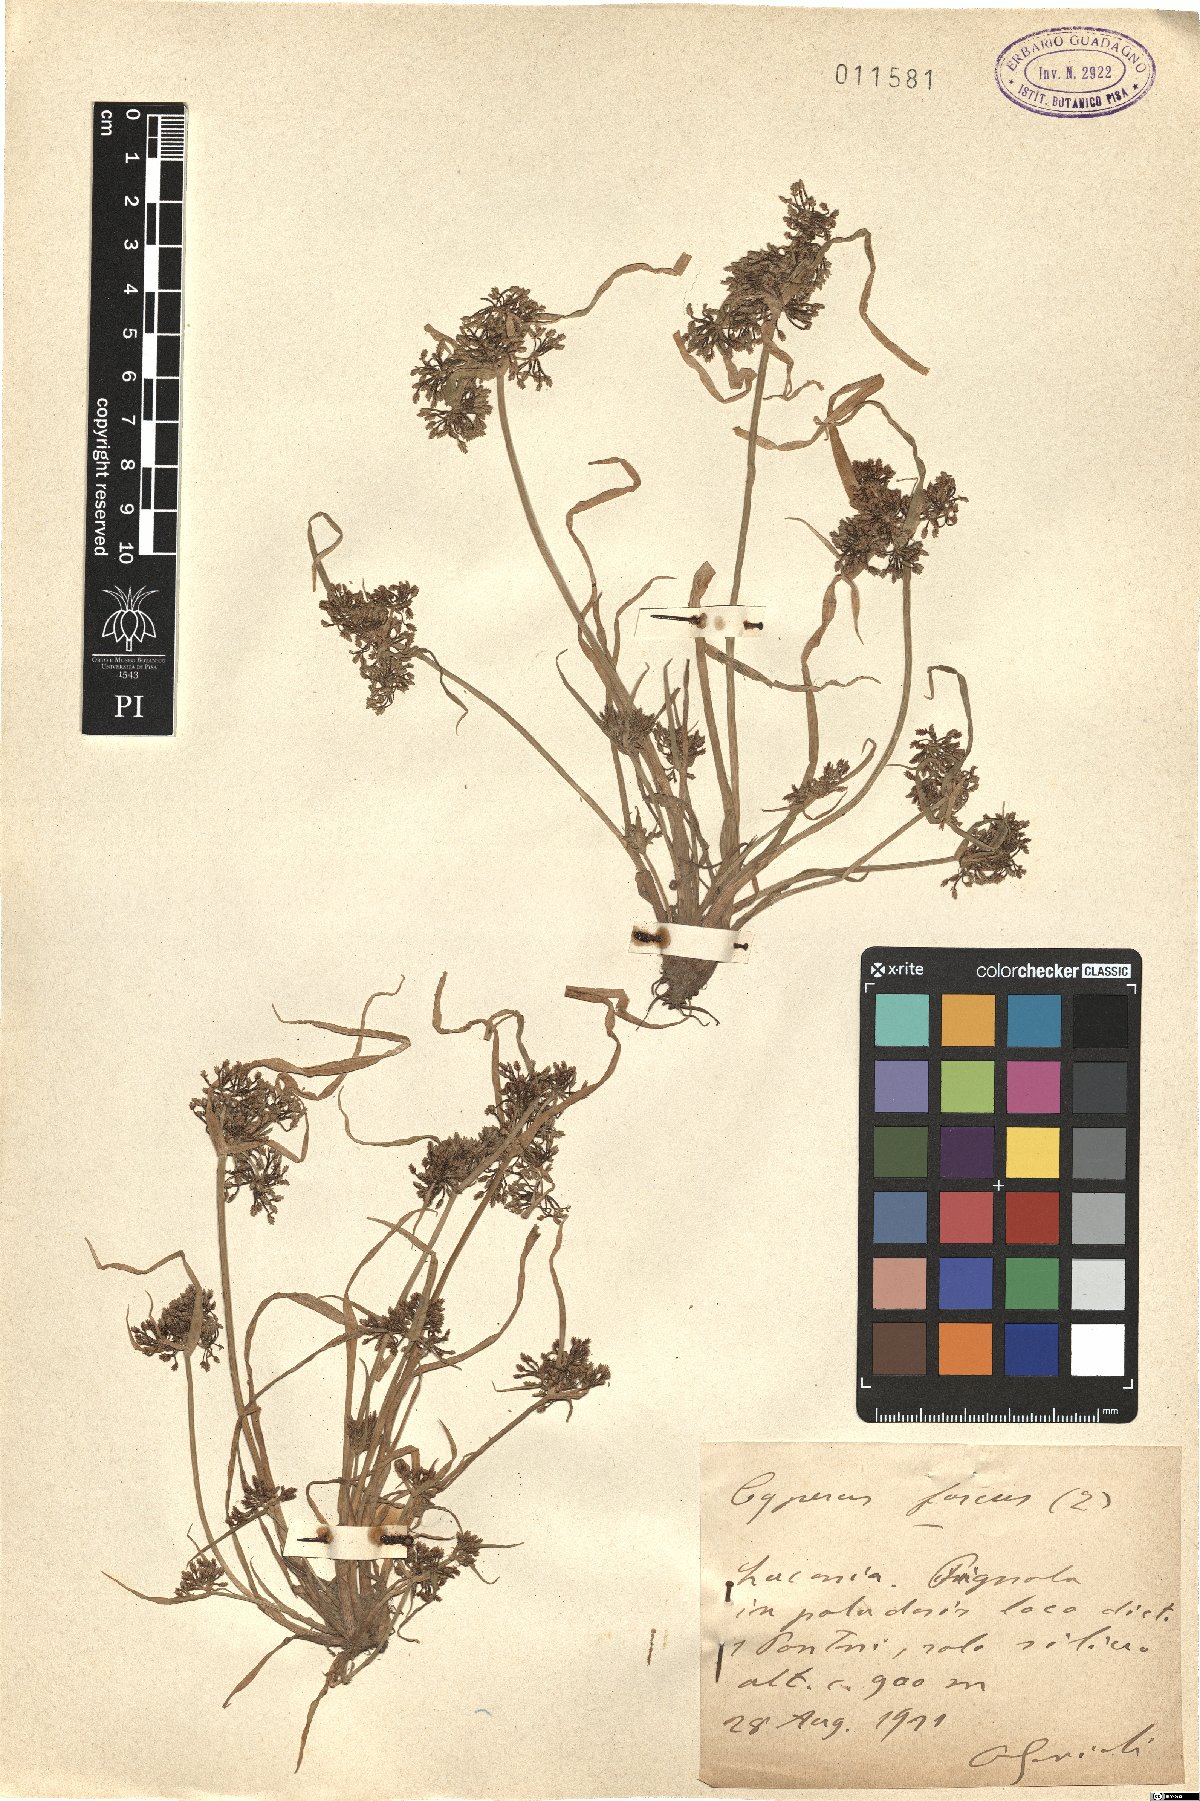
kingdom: Plantae
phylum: Tracheophyta
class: Liliopsida
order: Poales
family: Cyperaceae
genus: Cyperus
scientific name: Cyperus fuscus
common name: Brown galingale
